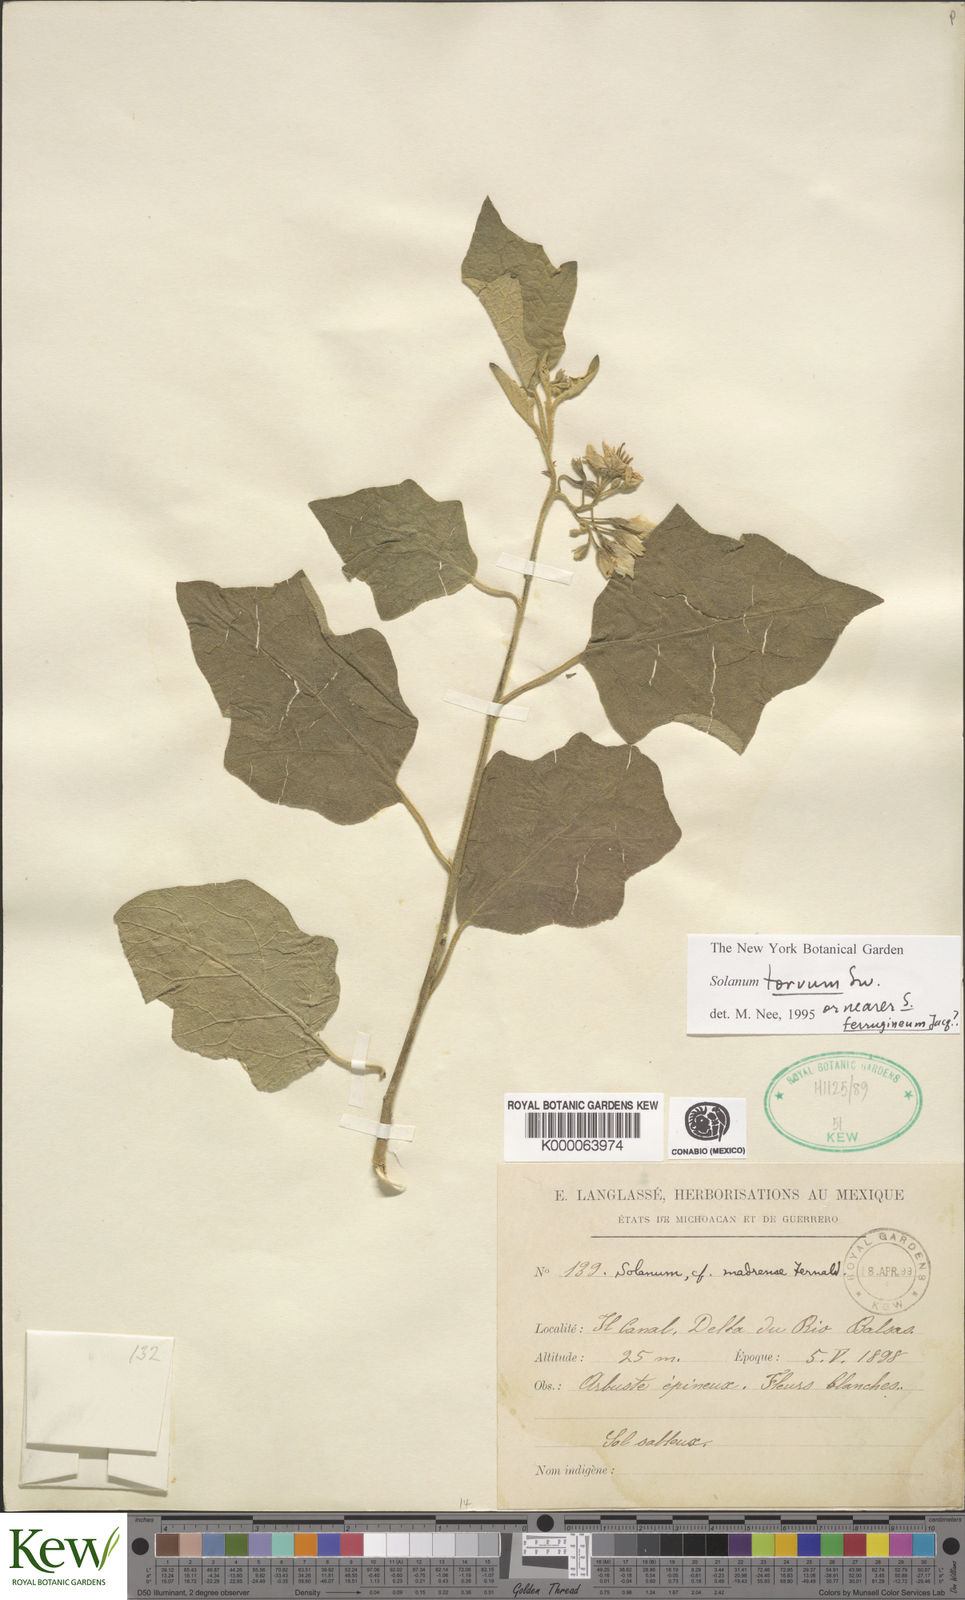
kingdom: Plantae
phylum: Tracheophyta
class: Magnoliopsida
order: Solanales
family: Solanaceae
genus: Solanum
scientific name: Solanum torvum
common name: Turkey berry
